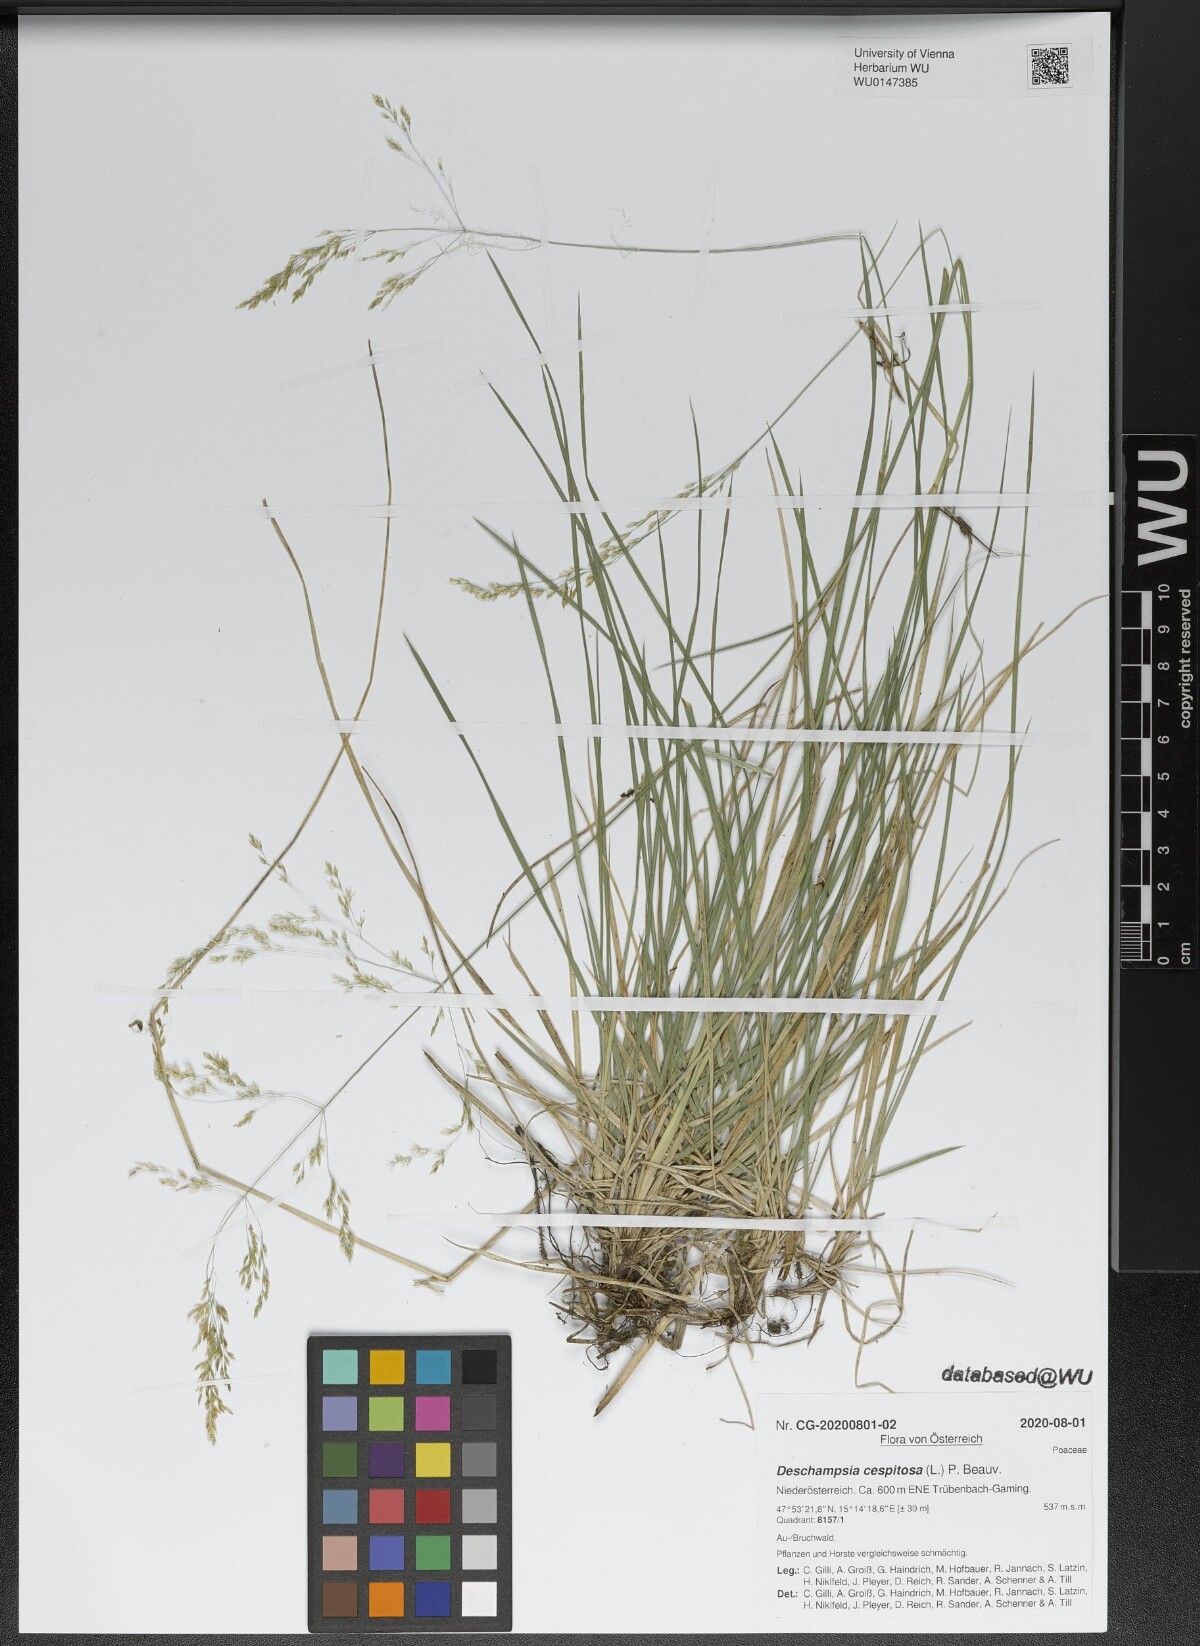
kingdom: Plantae
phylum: Tracheophyta
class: Liliopsida
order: Poales
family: Poaceae
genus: Deschampsia
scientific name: Deschampsia cespitosa
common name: Tufted hair-grass
